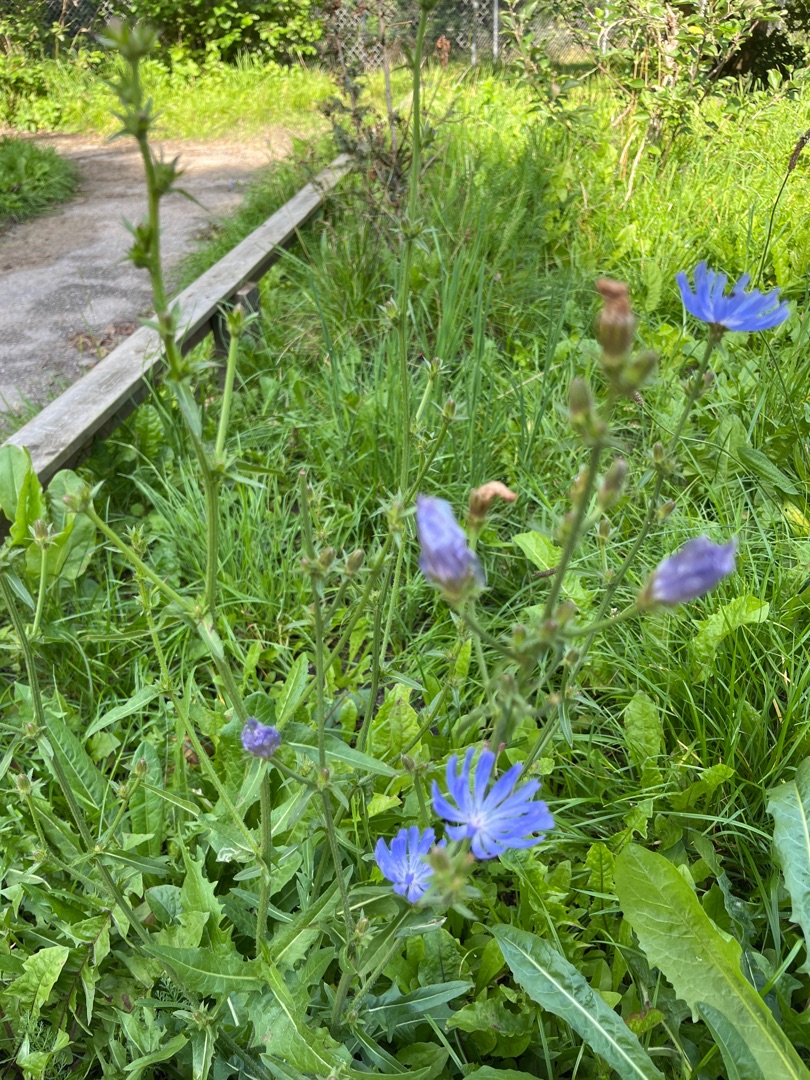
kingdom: Plantae
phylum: Tracheophyta
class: Magnoliopsida
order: Asterales
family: Asteraceae
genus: Cichorium
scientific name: Cichorium intybus
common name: Cikorie
